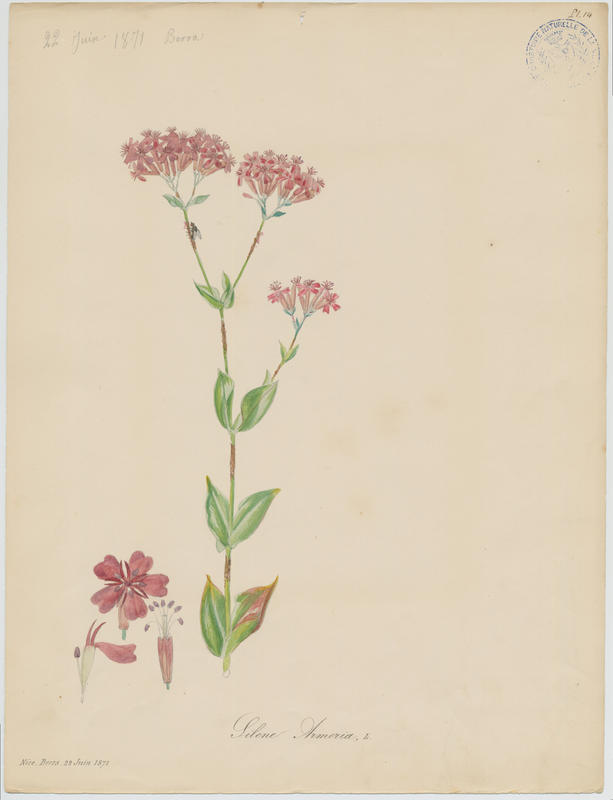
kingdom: Plantae
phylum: Tracheophyta
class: Magnoliopsida
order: Caryophyllales
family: Caryophyllaceae
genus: Atocion
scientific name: Atocion armeria
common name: Sweet william catchfly
